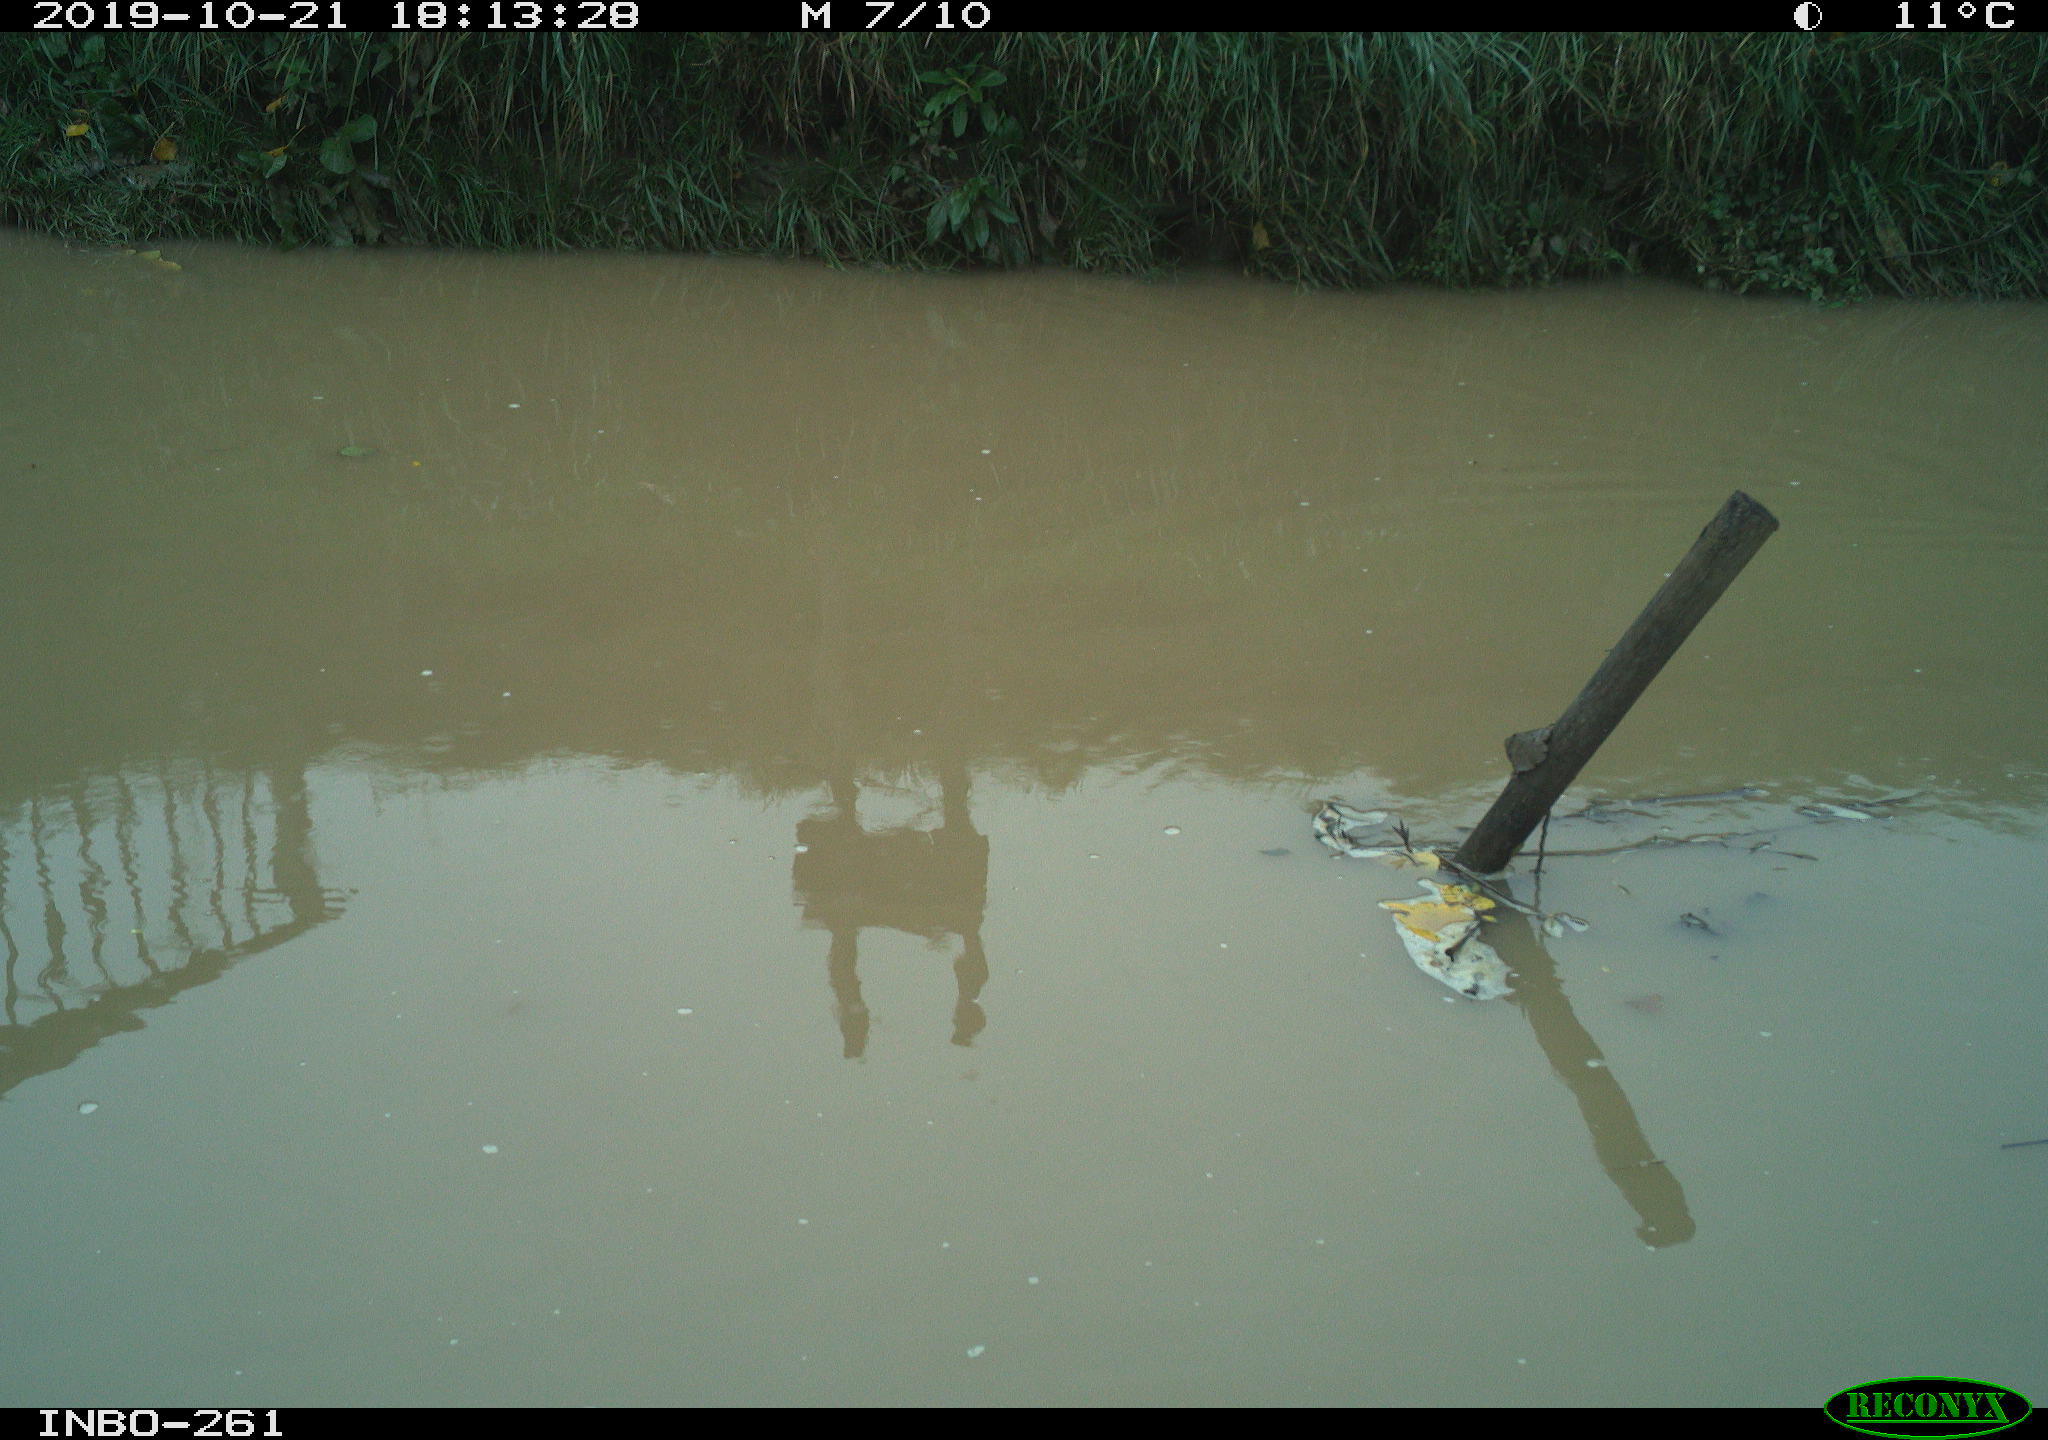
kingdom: Animalia
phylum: Chordata
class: Aves
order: Gruiformes
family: Rallidae
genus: Gallinula
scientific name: Gallinula chloropus
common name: Common moorhen
